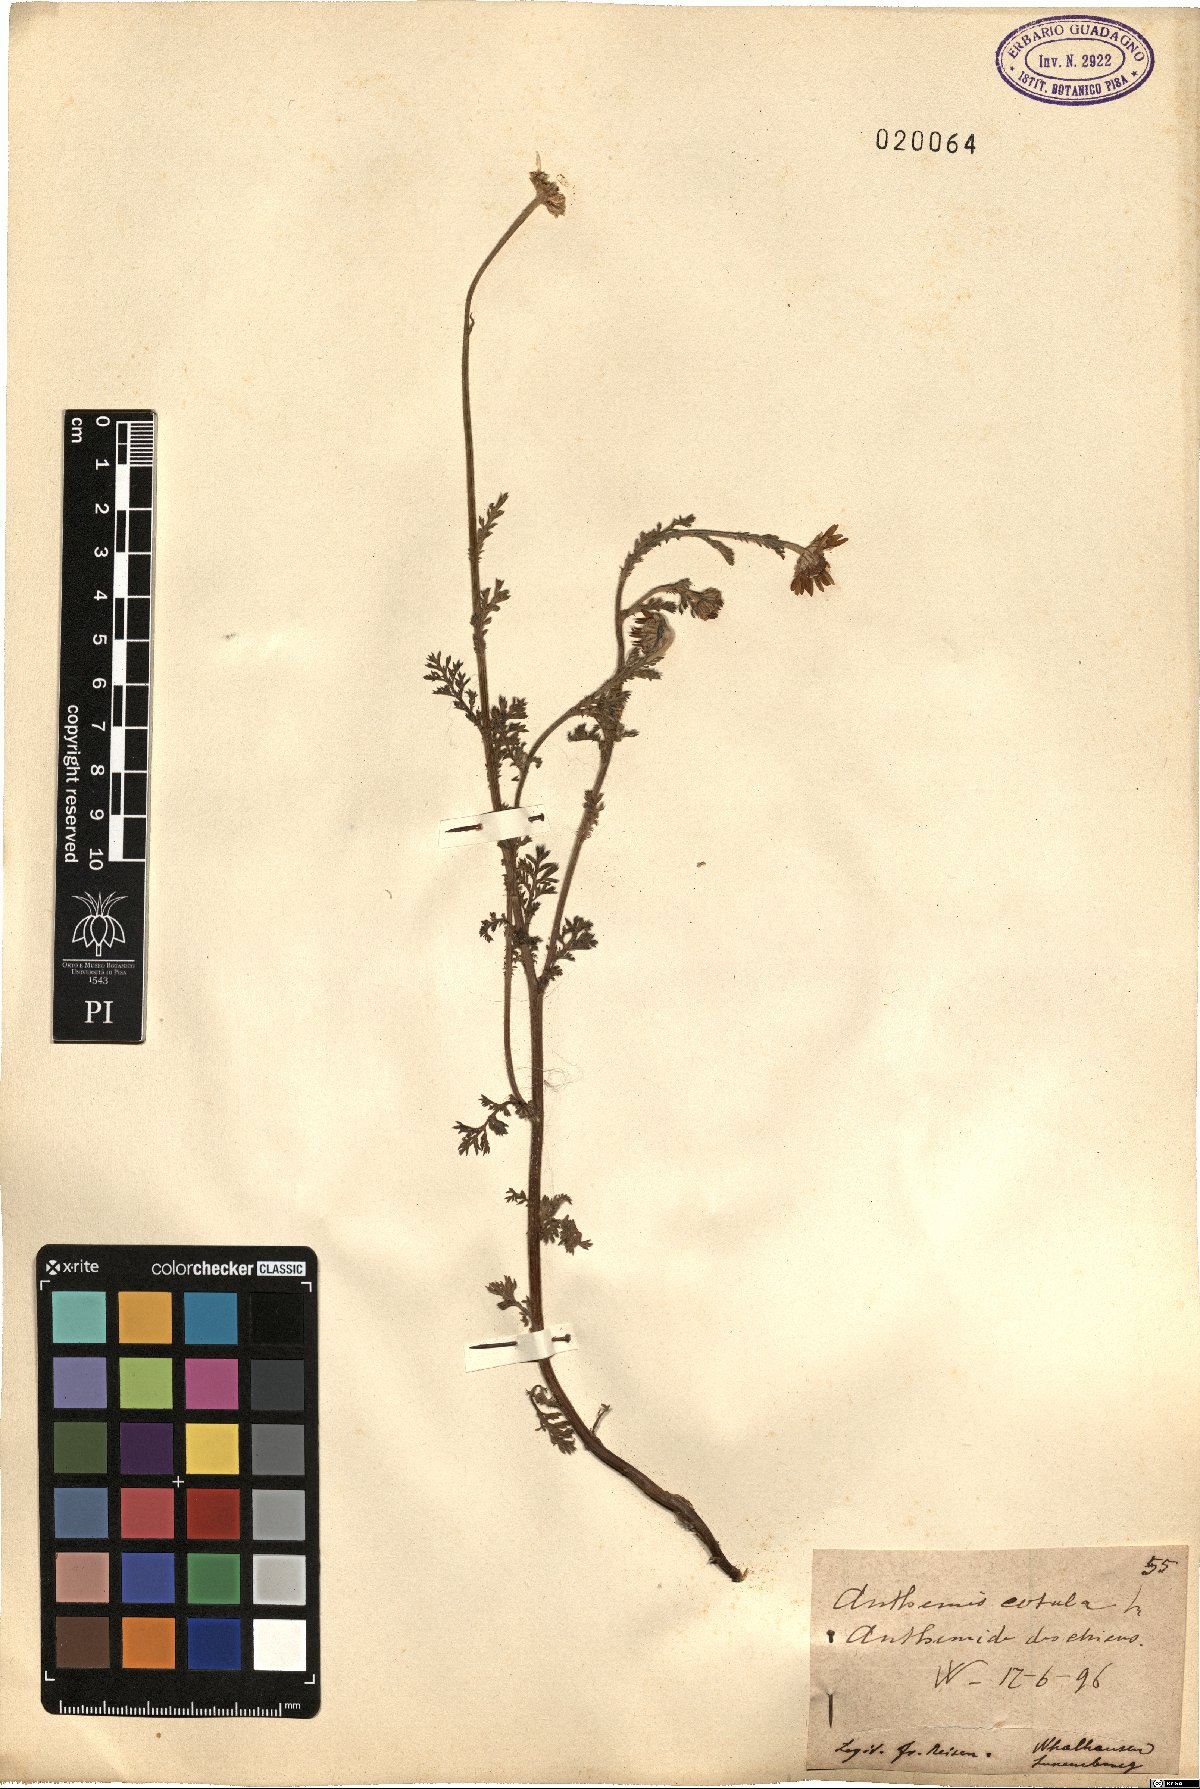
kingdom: Plantae
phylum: Tracheophyta
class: Magnoliopsida
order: Asterales
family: Asteraceae
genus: Anthemis
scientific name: Anthemis cotula
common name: Stinking chamomile
